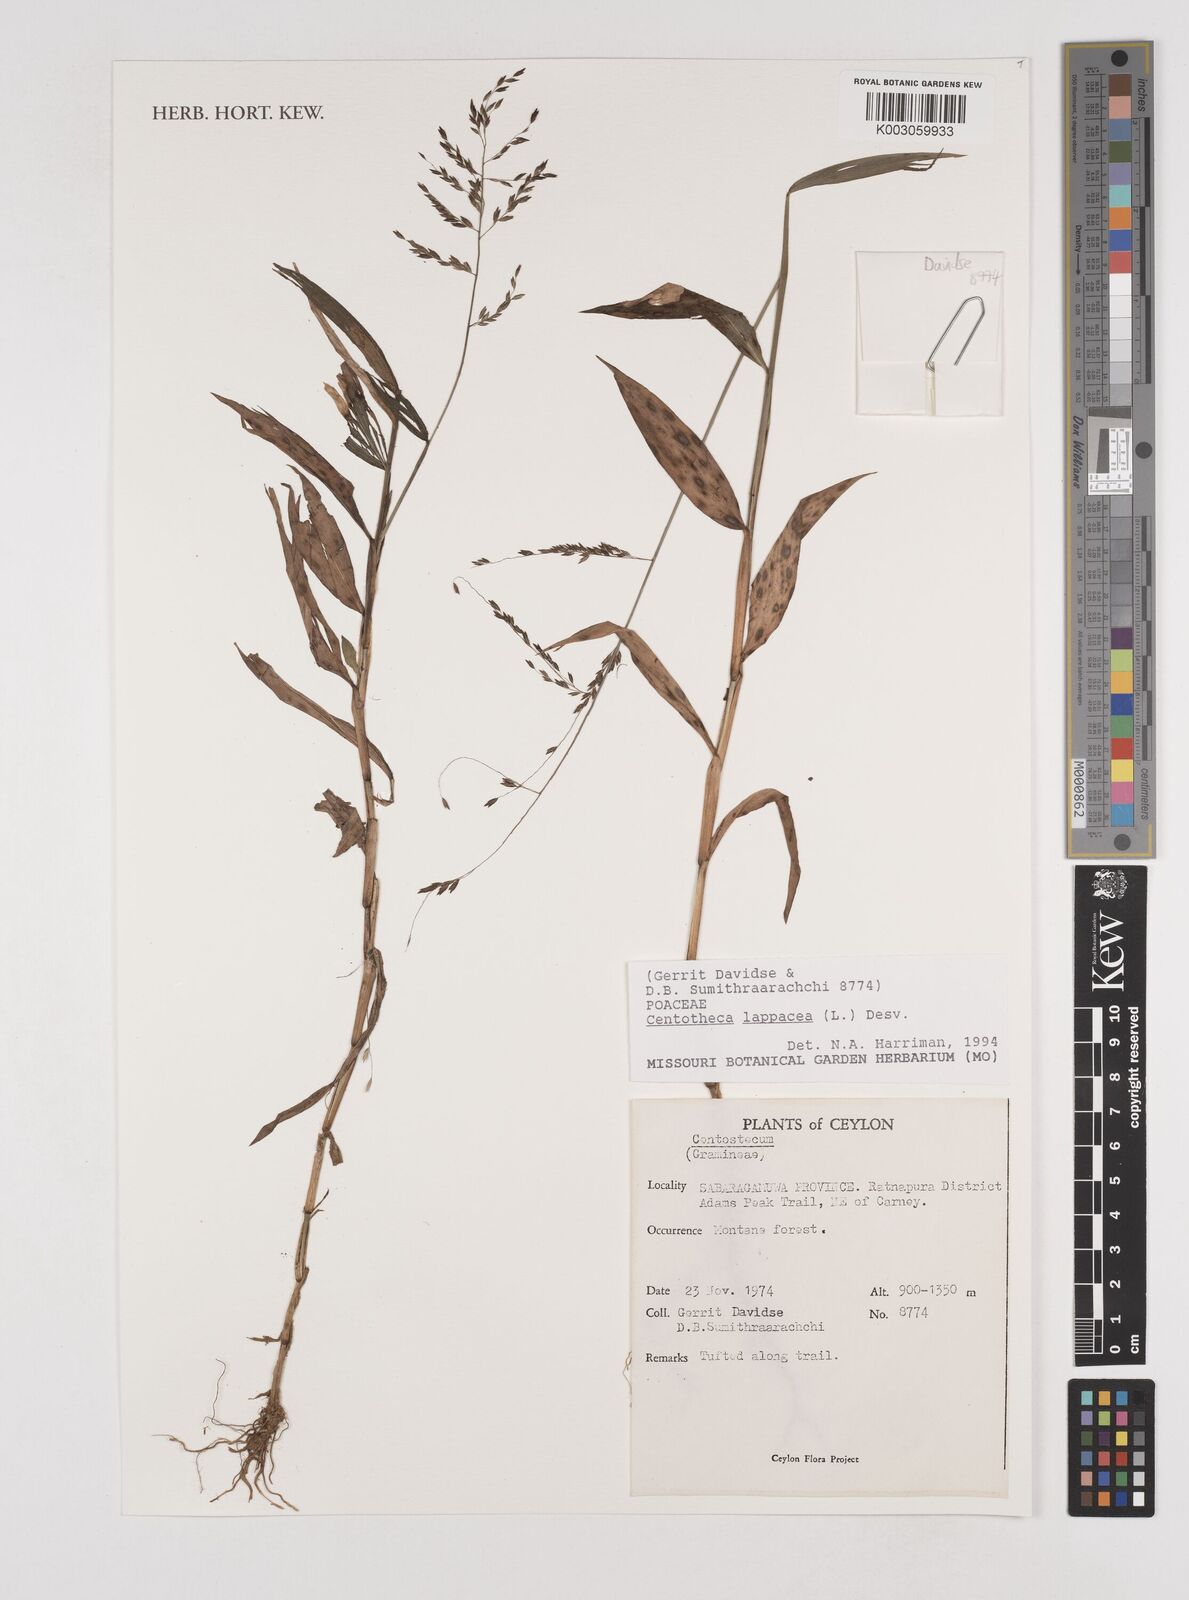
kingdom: Plantae
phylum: Tracheophyta
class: Liliopsida
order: Poales
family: Poaceae
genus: Centotheca
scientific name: Centotheca lappacea
